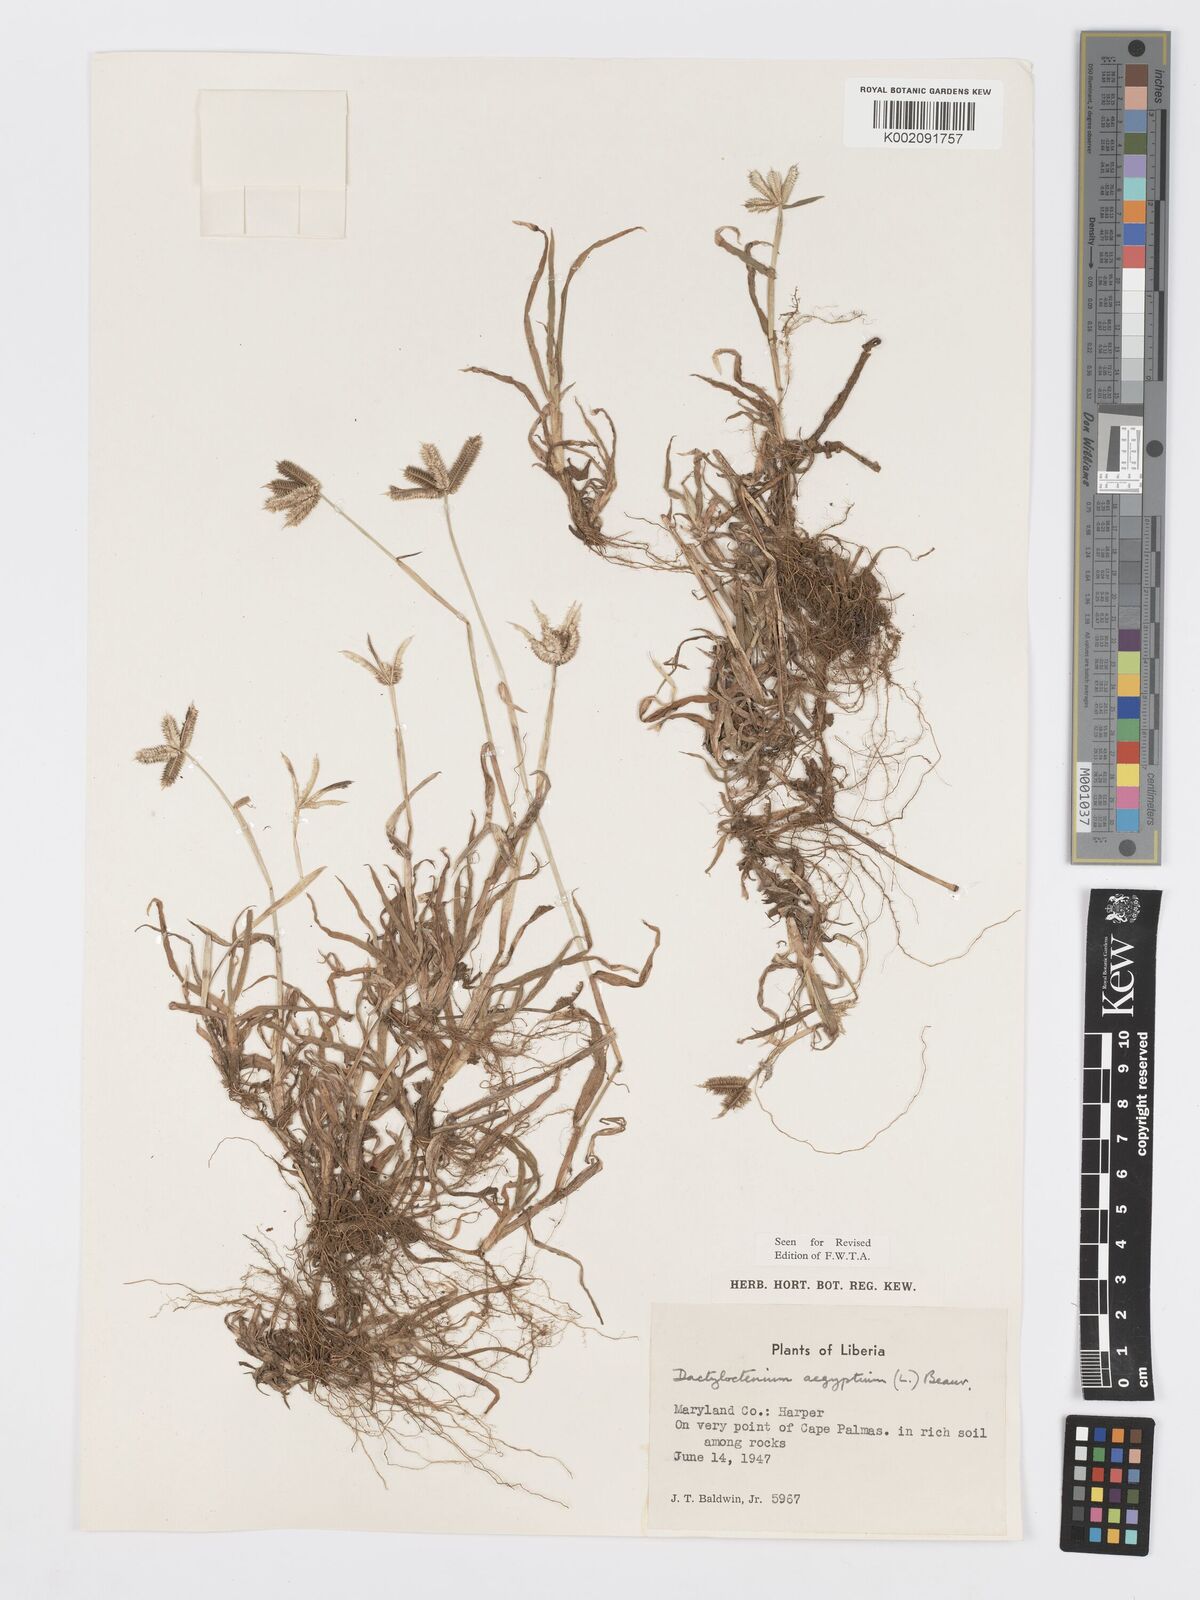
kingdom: Plantae
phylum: Tracheophyta
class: Liliopsida
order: Poales
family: Poaceae
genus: Dactyloctenium
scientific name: Dactyloctenium aegyptium
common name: Egyptian grass
